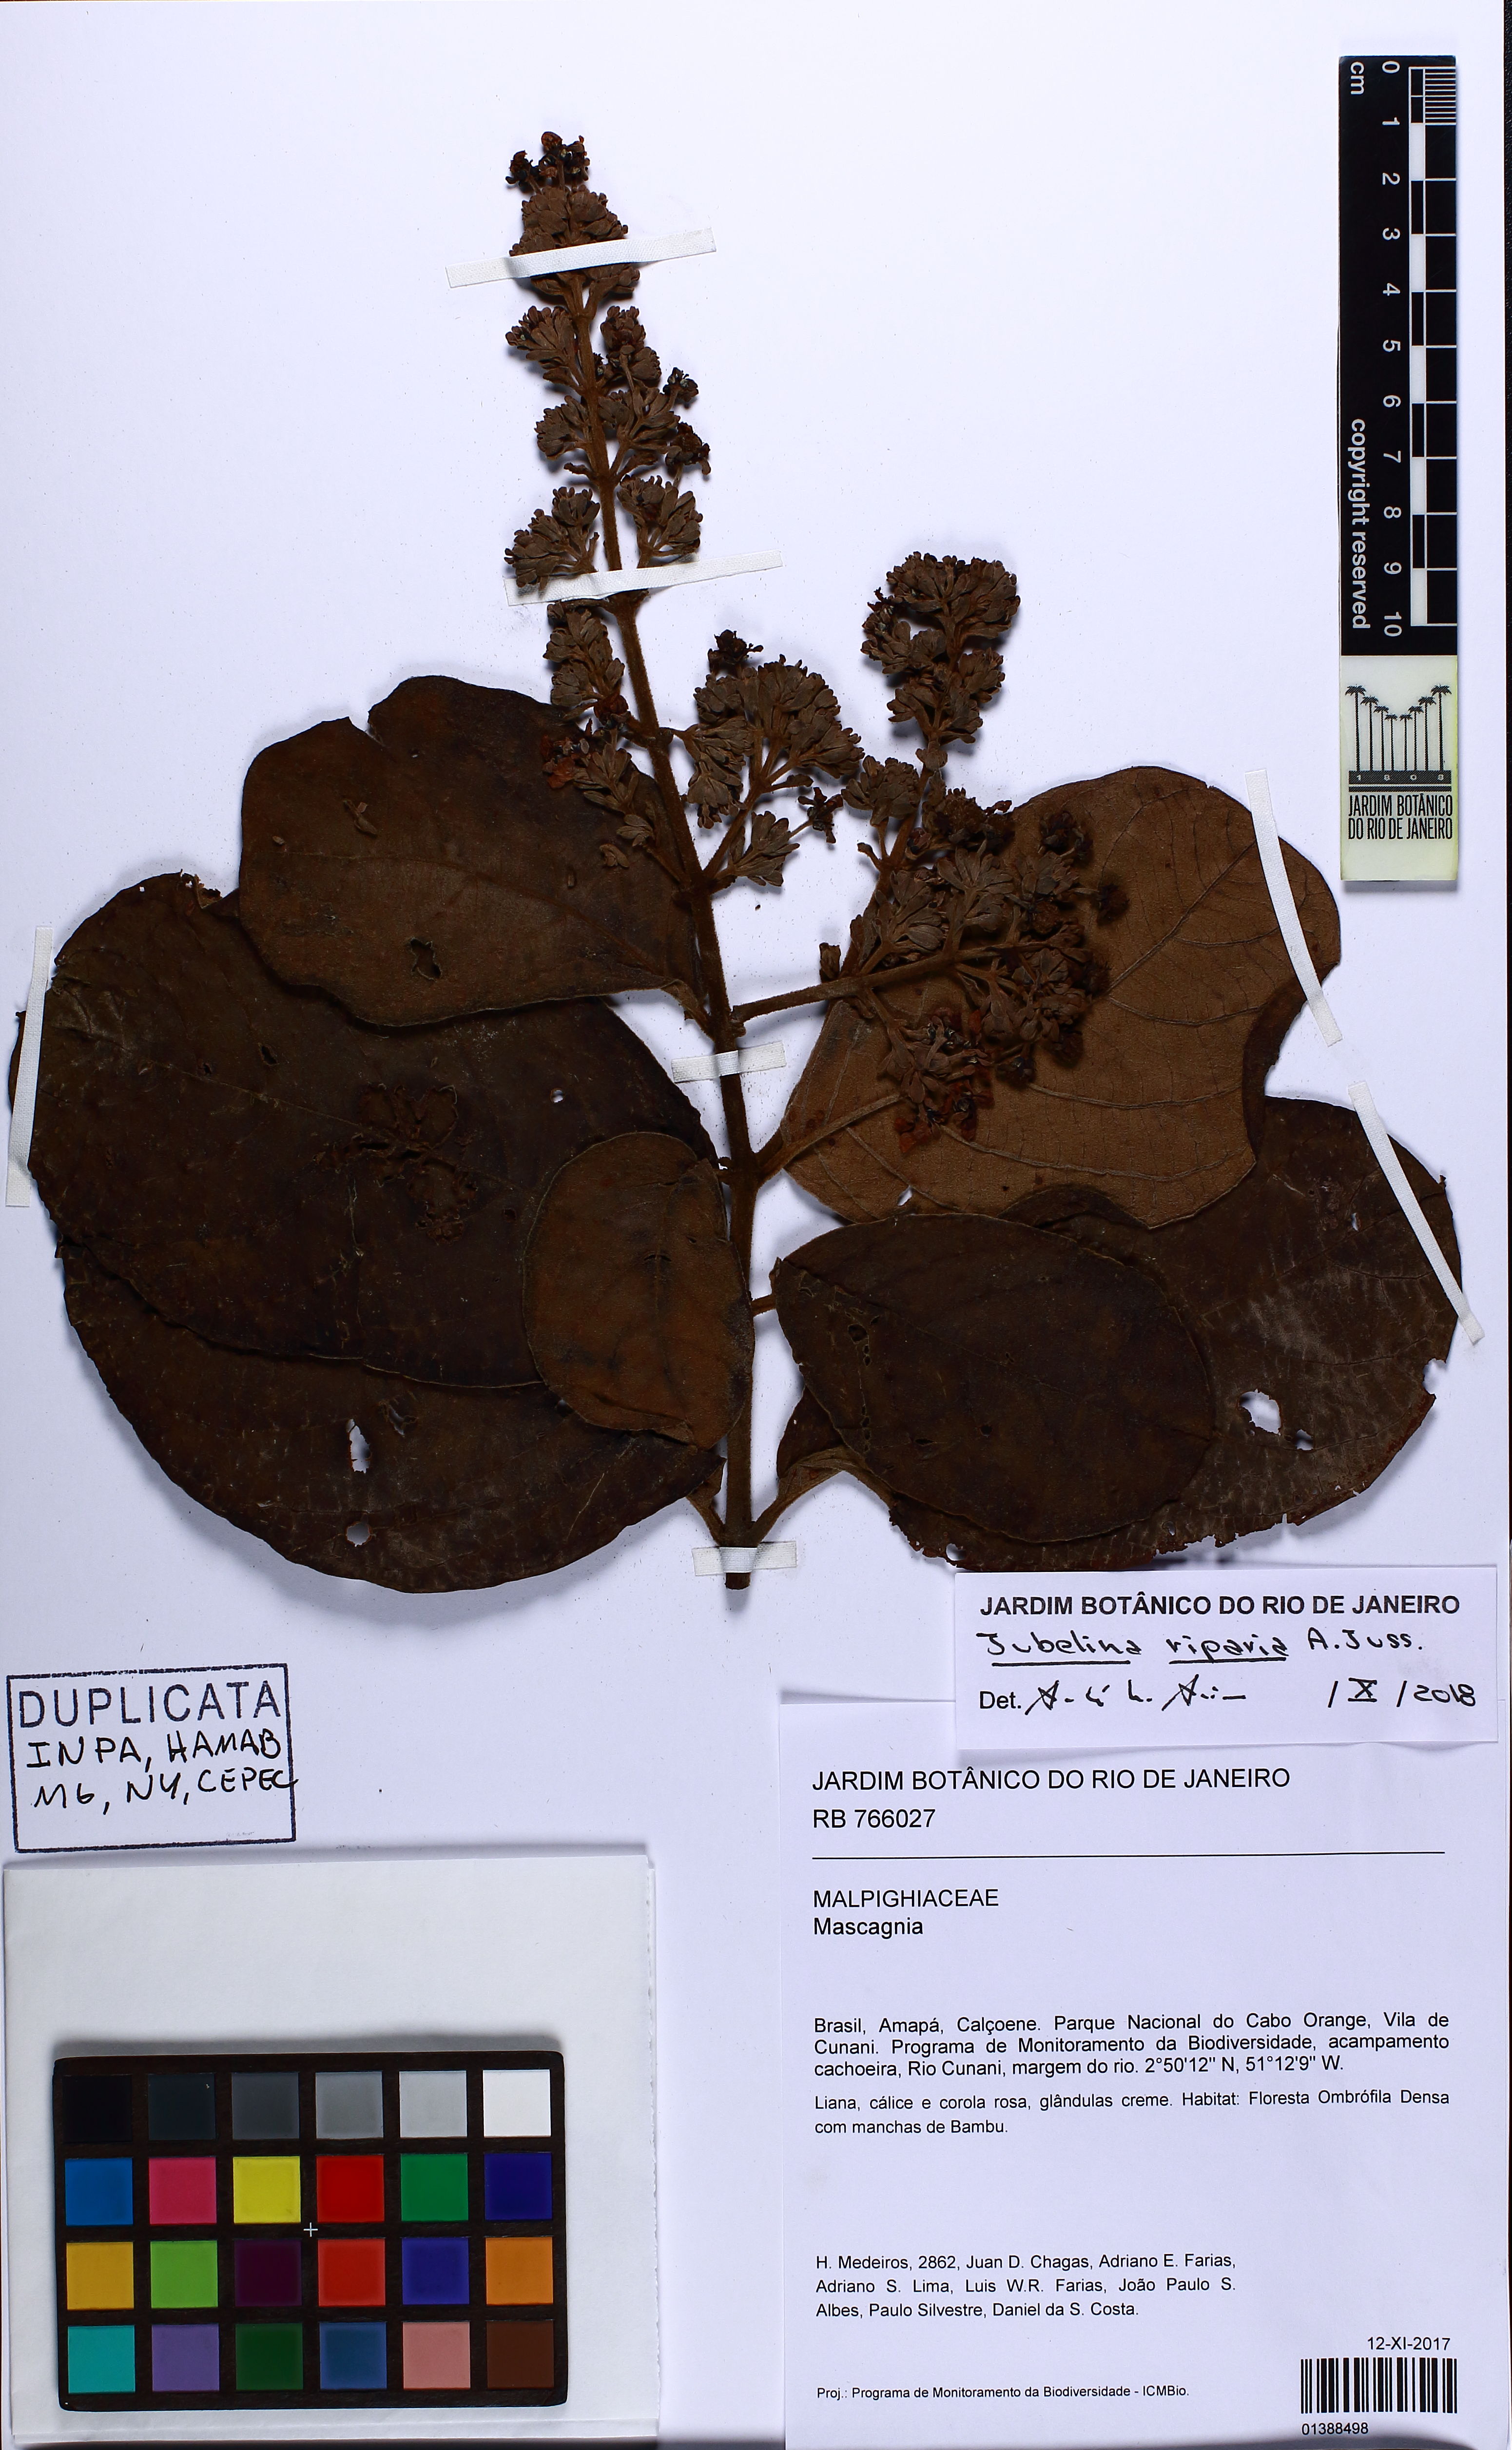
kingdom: Plantae
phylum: Tracheophyta
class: Magnoliopsida
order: Malpighiales
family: Malpighiaceae
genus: Jubelina
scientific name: Jubelina riparia
